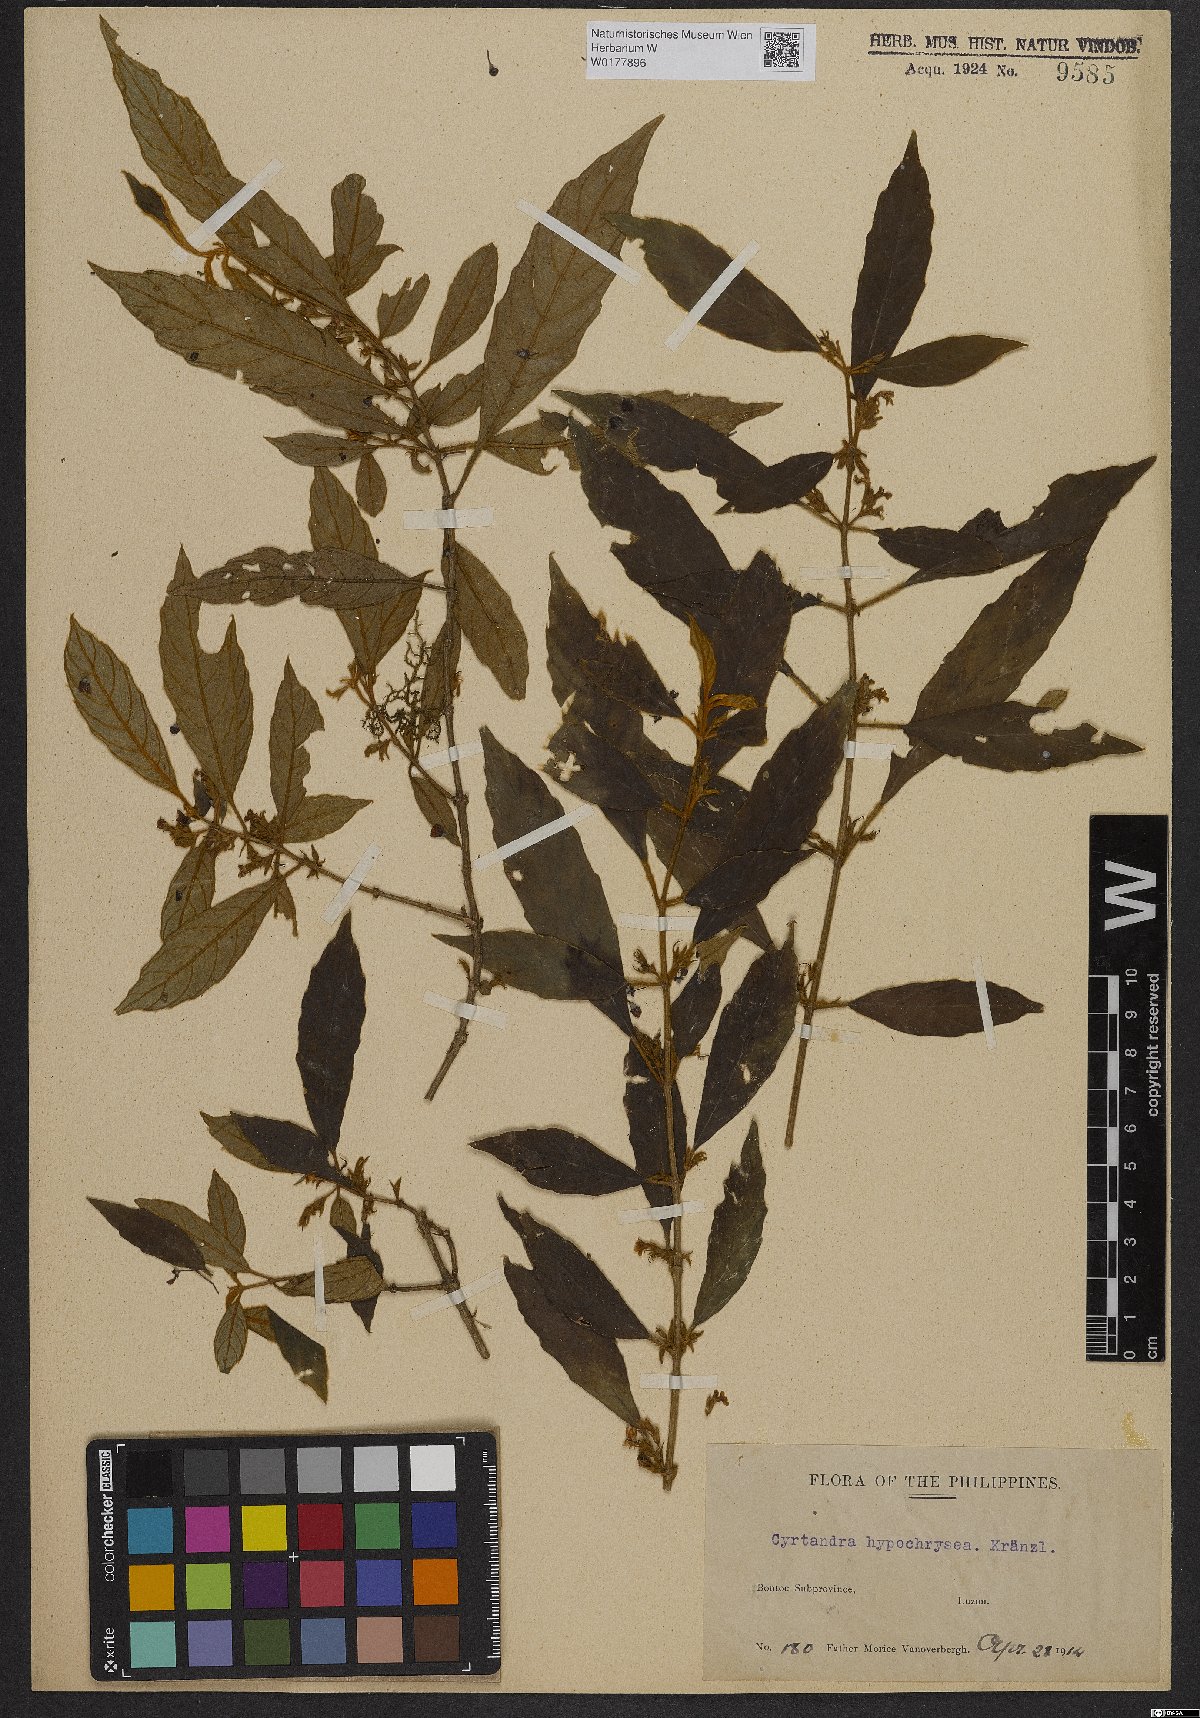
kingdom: Plantae
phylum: Tracheophyta
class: Magnoliopsida
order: Lamiales
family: Gesneriaceae
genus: Cyrtandra
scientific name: Cyrtandra hypochrysea
